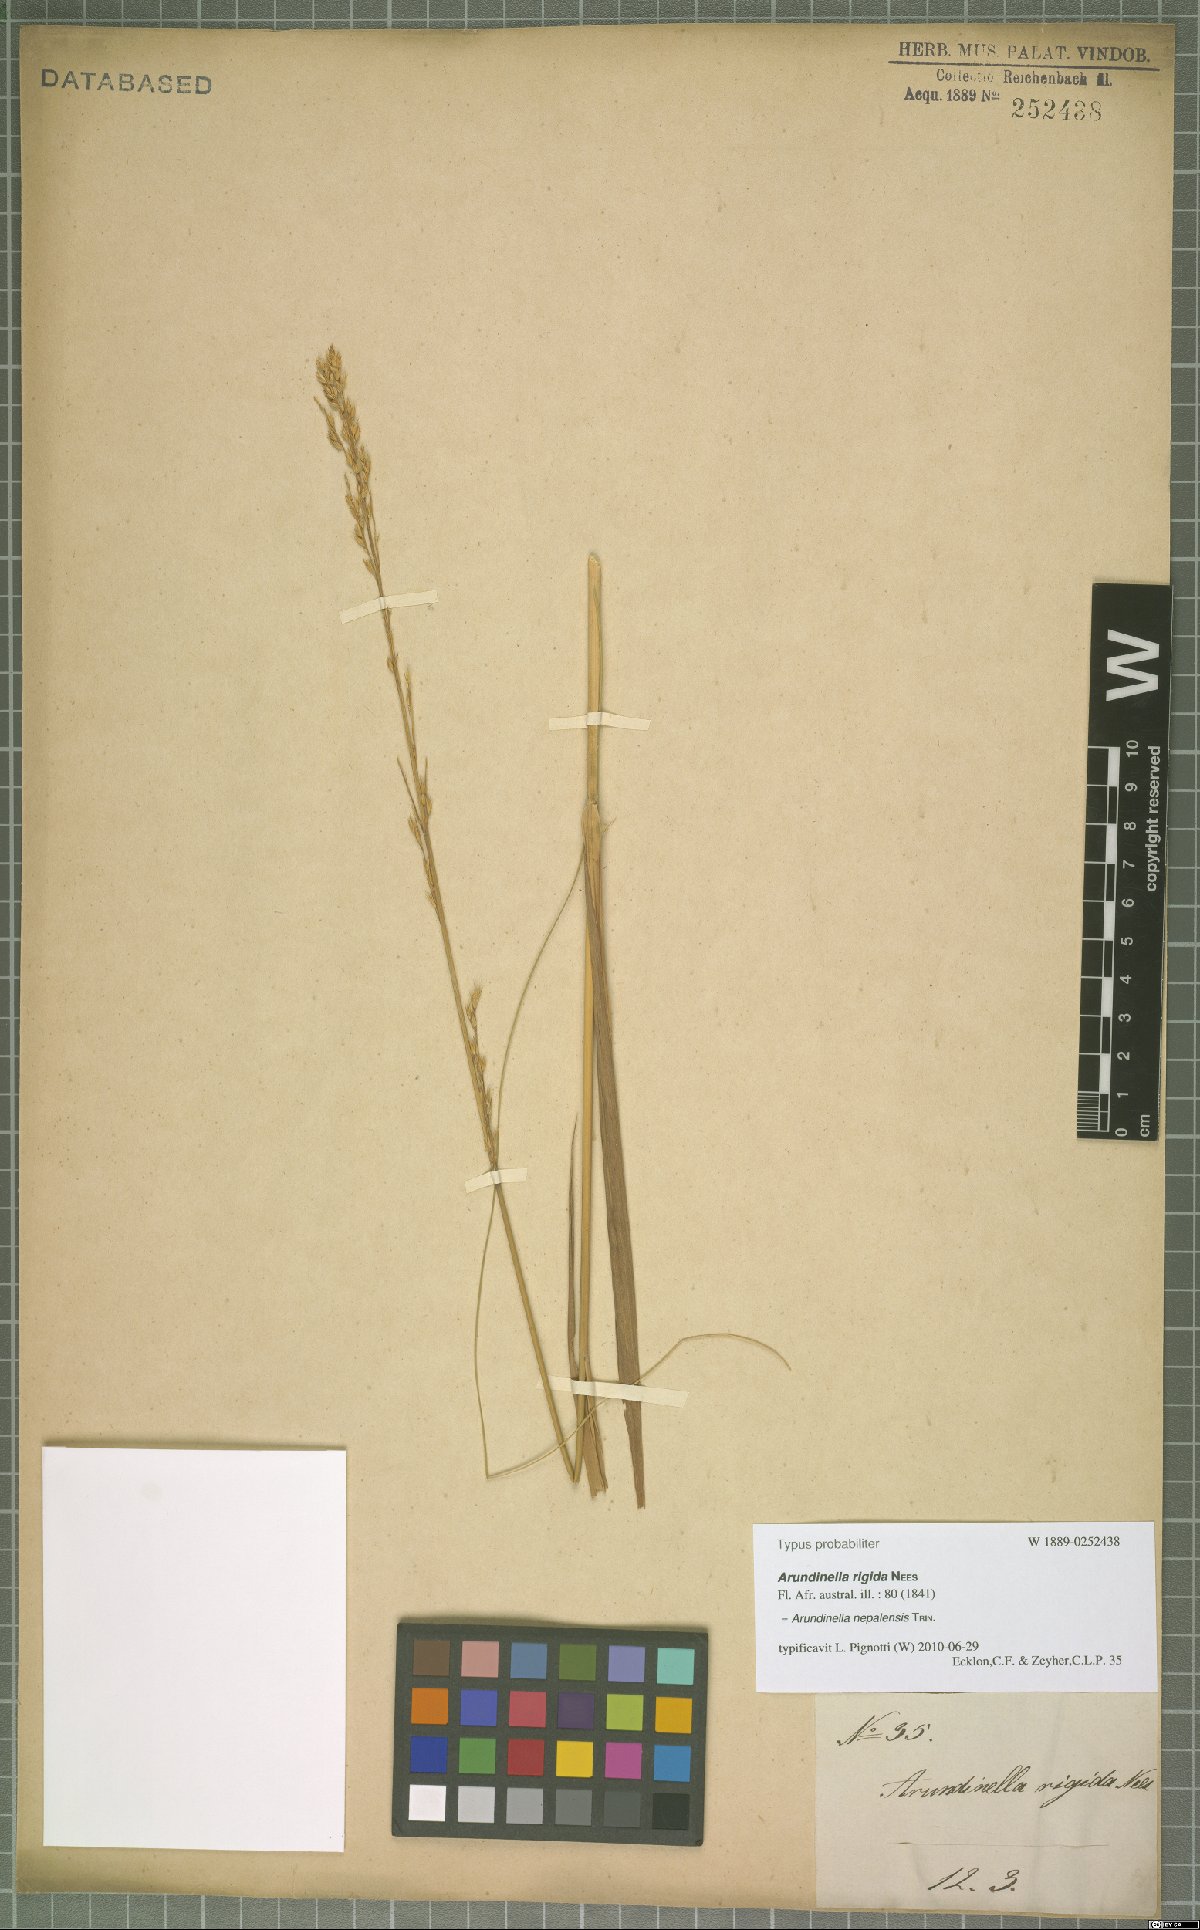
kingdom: Plantae
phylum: Tracheophyta
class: Liliopsida
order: Poales
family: Poaceae
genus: Arundinella
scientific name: Arundinella nepalensis
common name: Reed grass
